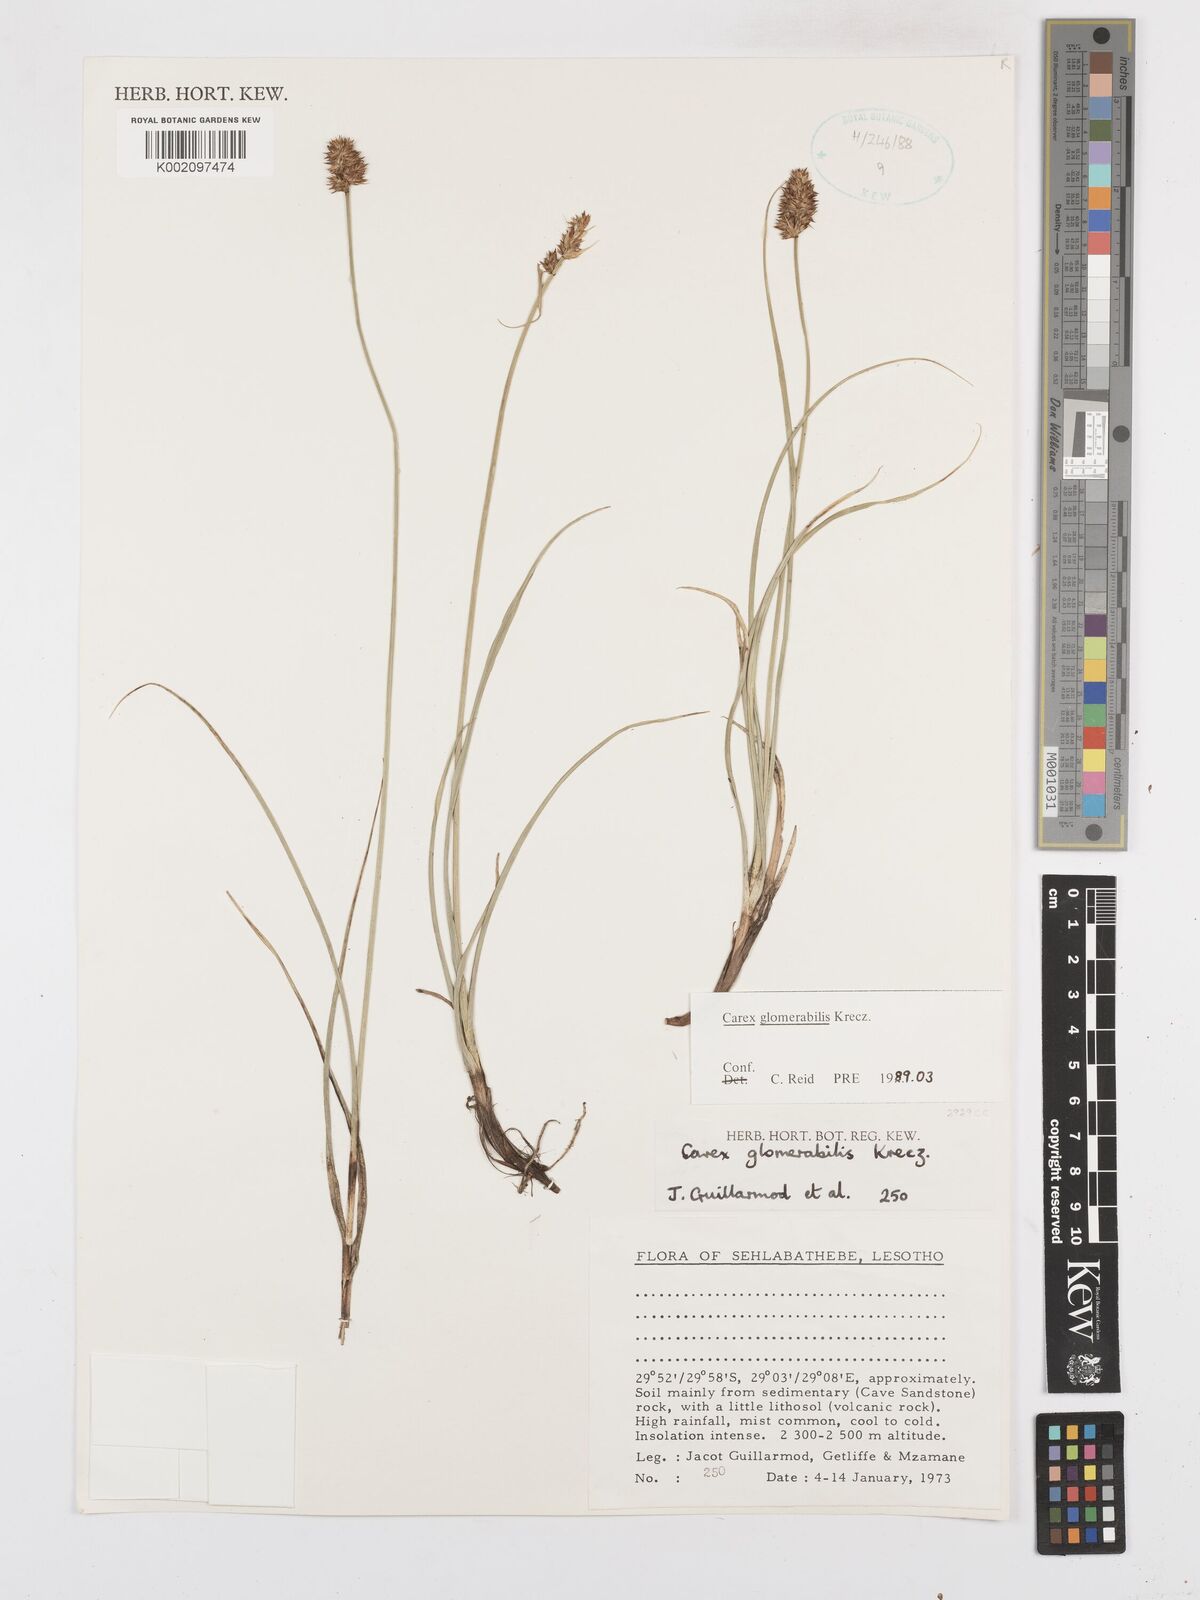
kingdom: Plantae
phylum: Tracheophyta
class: Liliopsida
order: Poales
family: Cyperaceae
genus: Carex
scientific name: Carex glomerata
